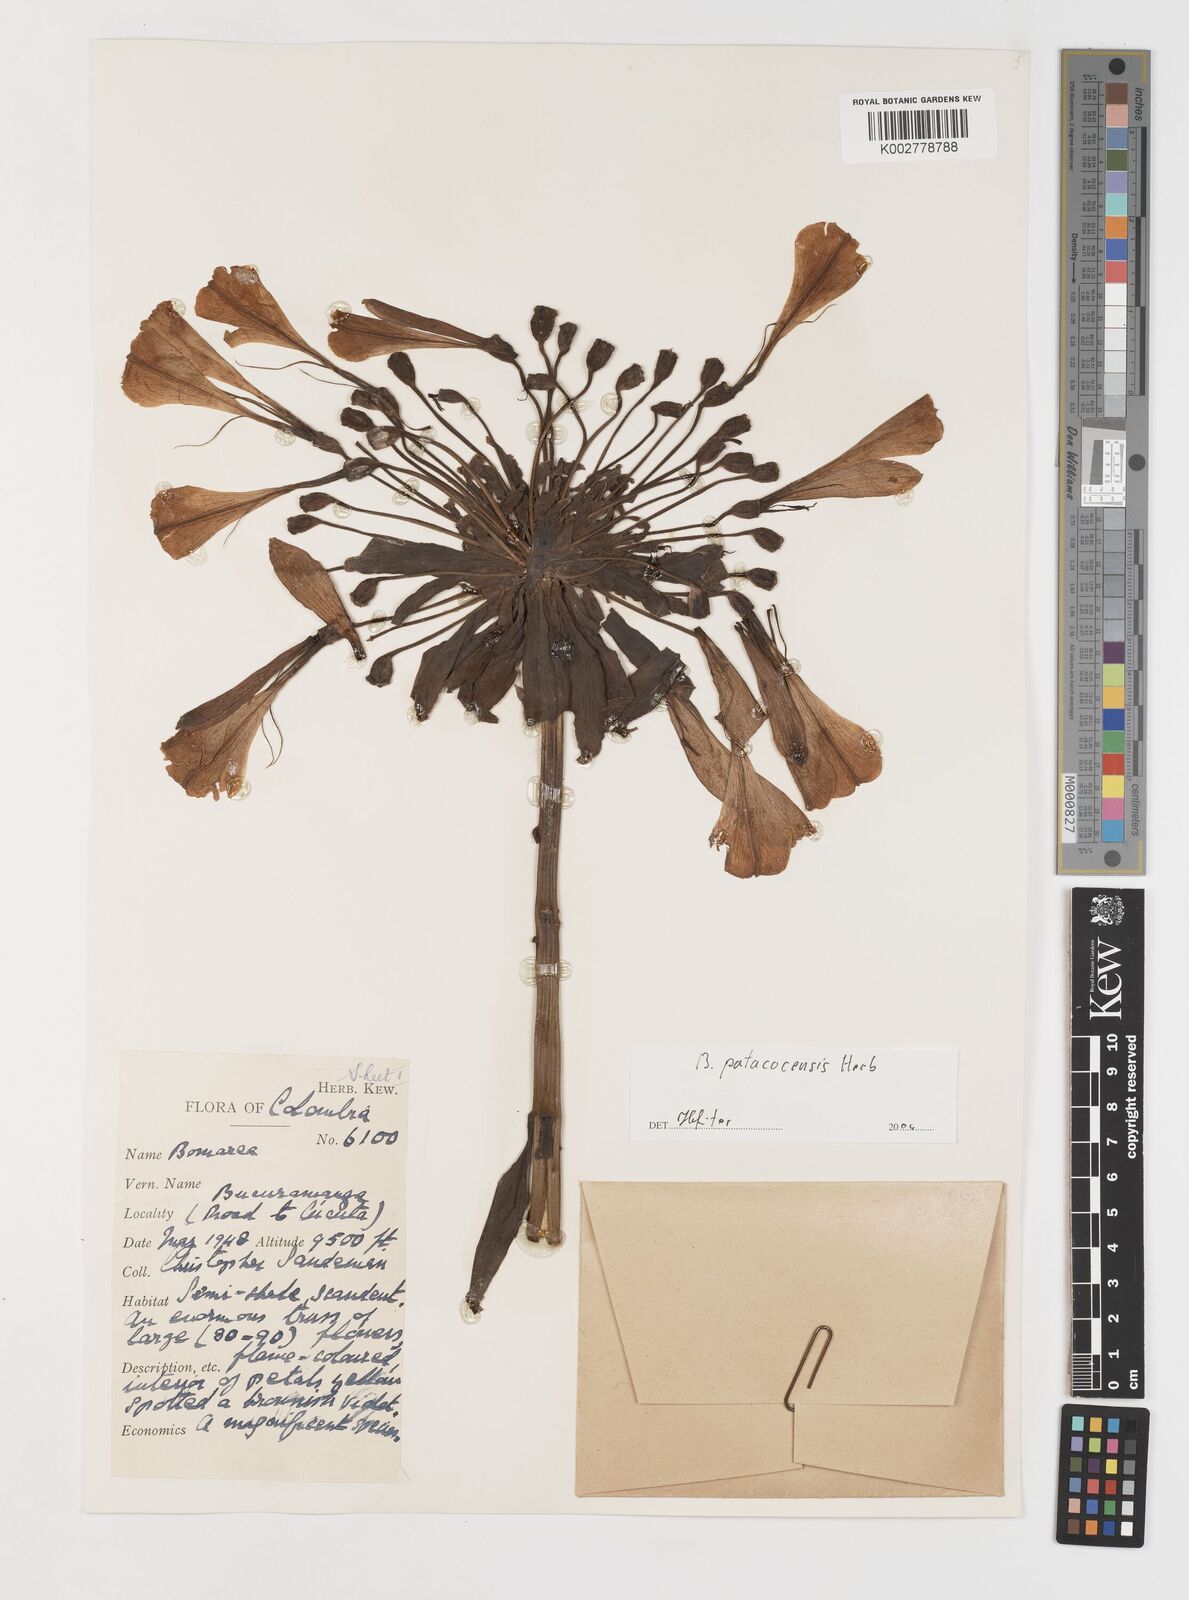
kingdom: Plantae
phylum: Tracheophyta
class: Liliopsida
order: Liliales
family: Alstroemeriaceae
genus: Bomarea
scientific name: Bomarea patacocensis
